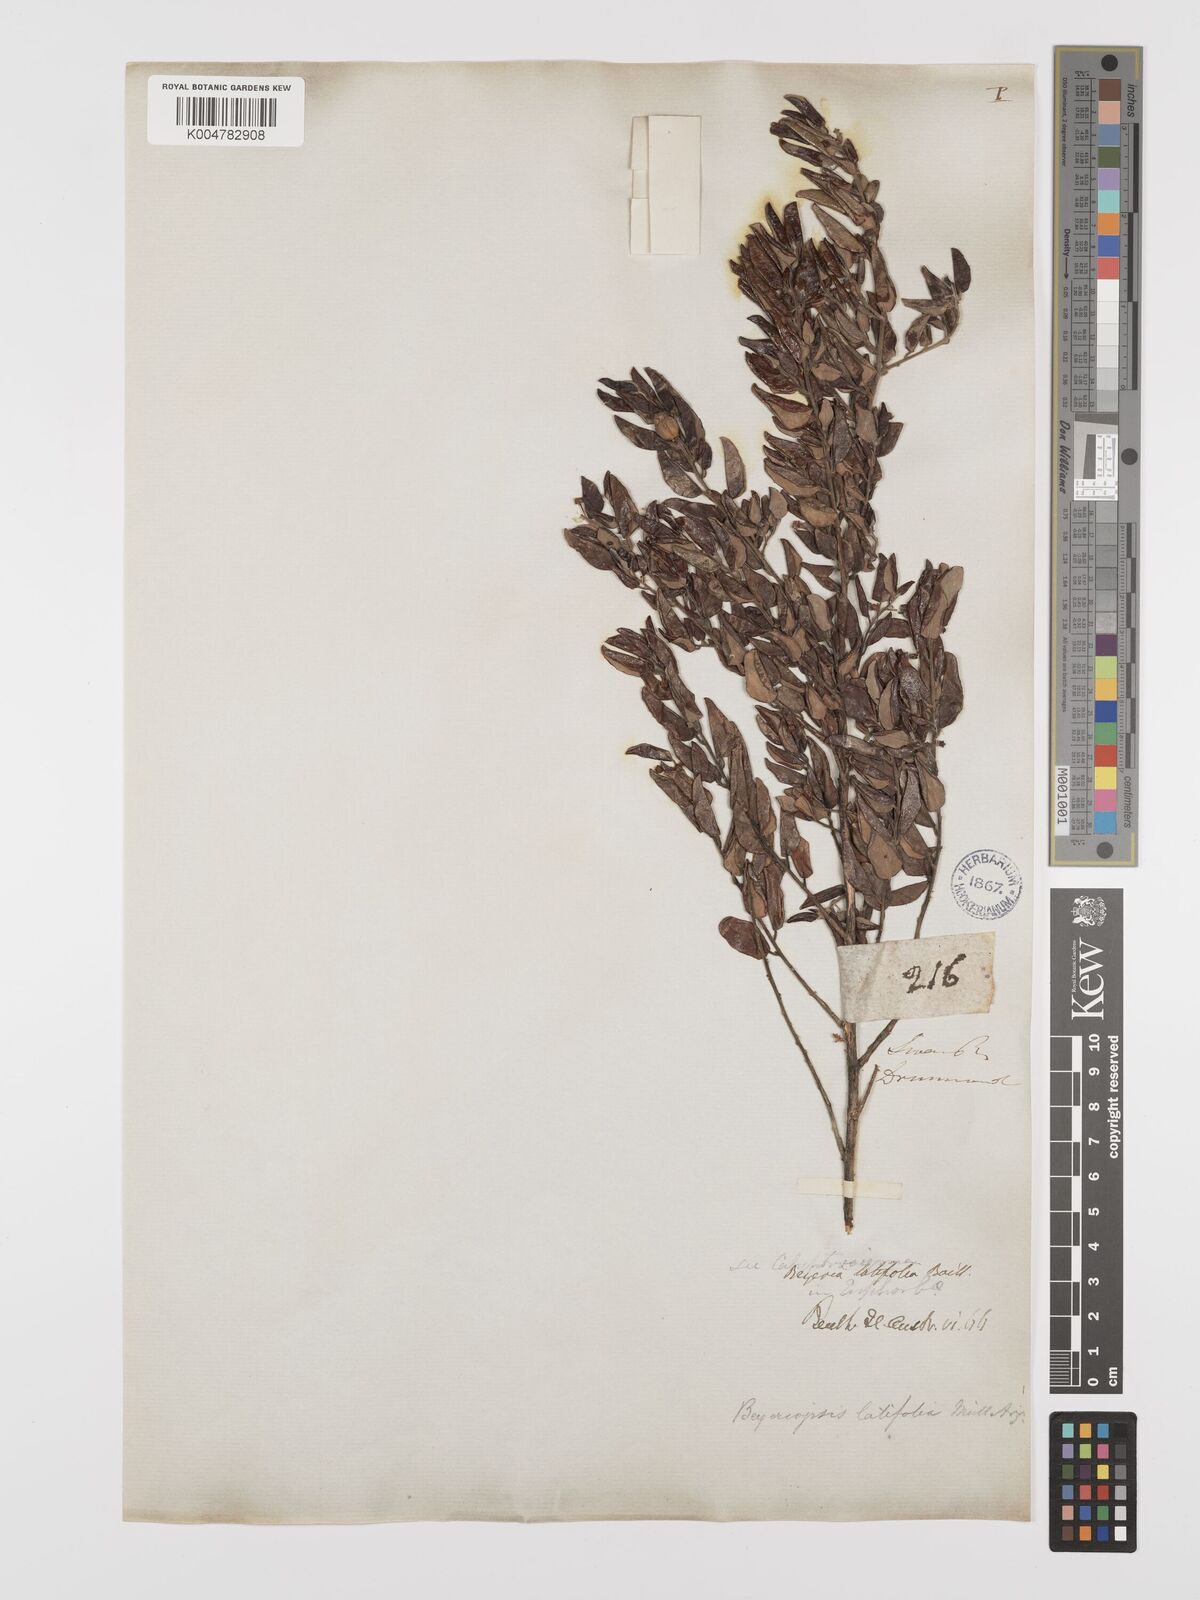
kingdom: Plantae
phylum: Tracheophyta
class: Magnoliopsida
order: Malpighiales
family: Euphorbiaceae
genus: Beyeria
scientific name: Beyeria latifolia
